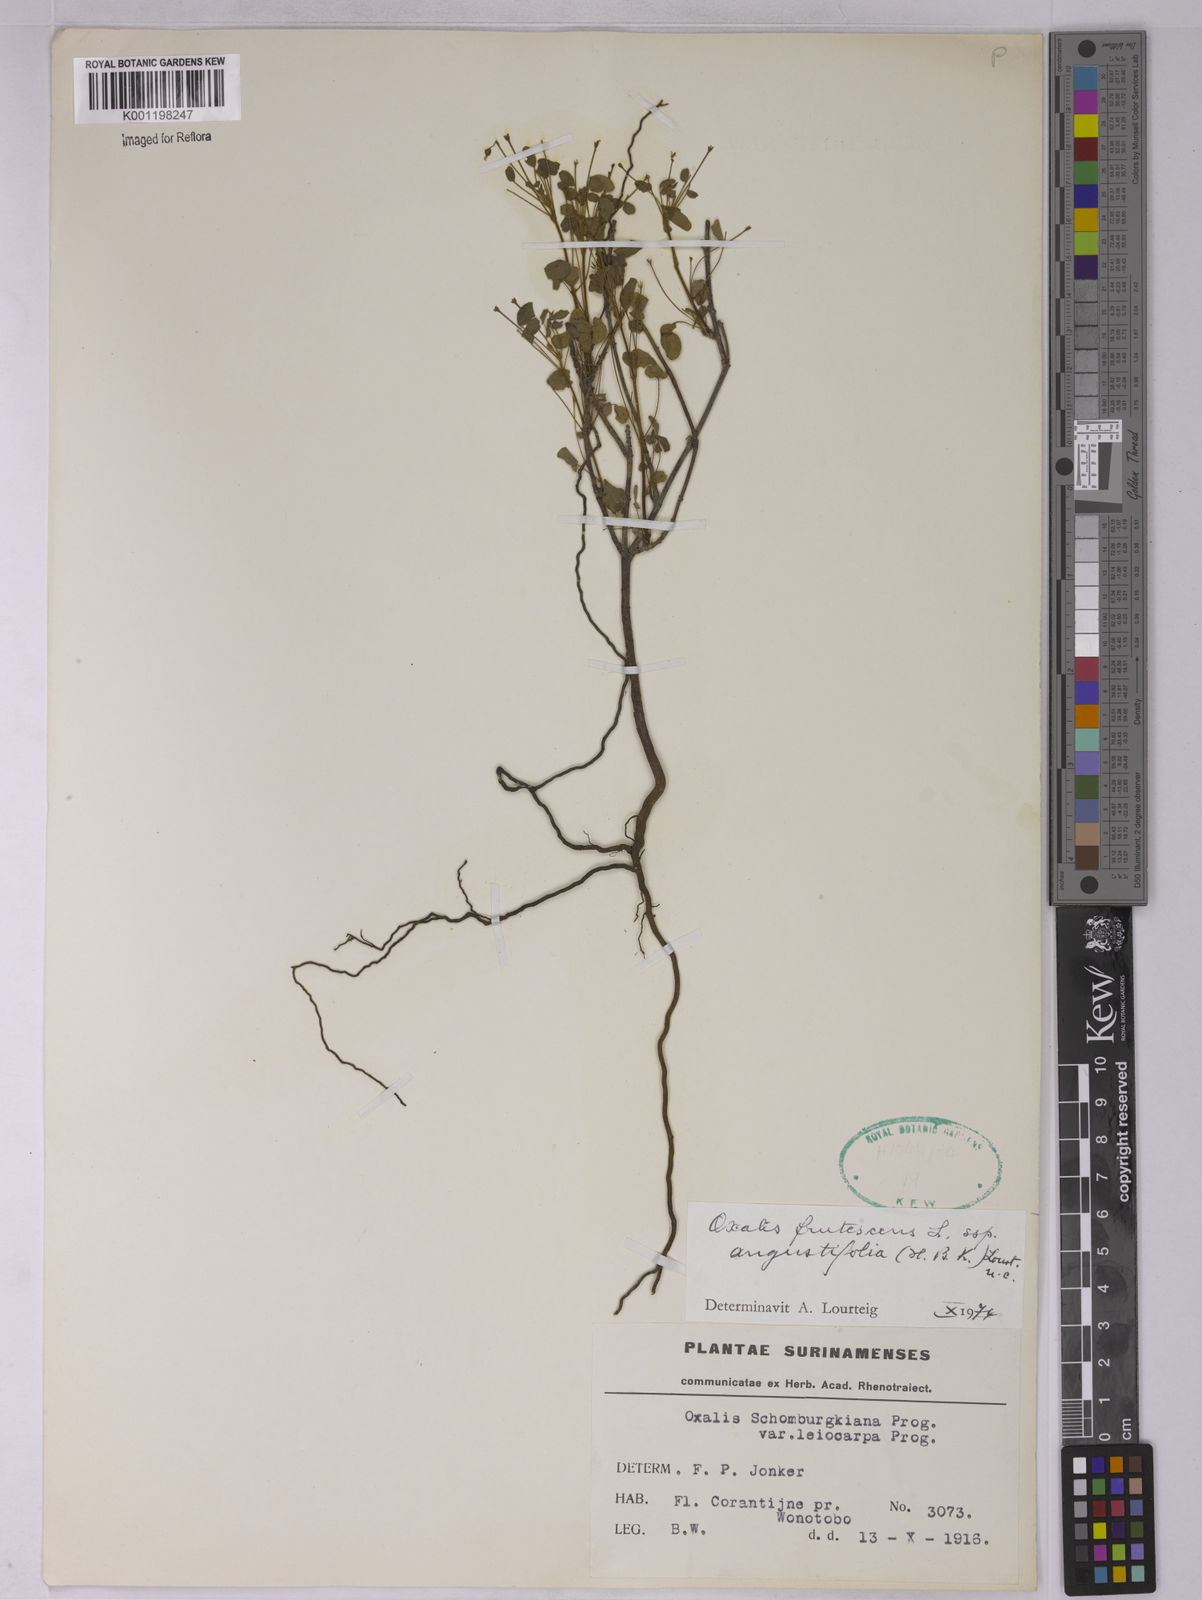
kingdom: Plantae
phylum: Tracheophyta
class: Magnoliopsida
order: Oxalidales
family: Oxalidaceae
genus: Oxalis
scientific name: Oxalis frutescens
